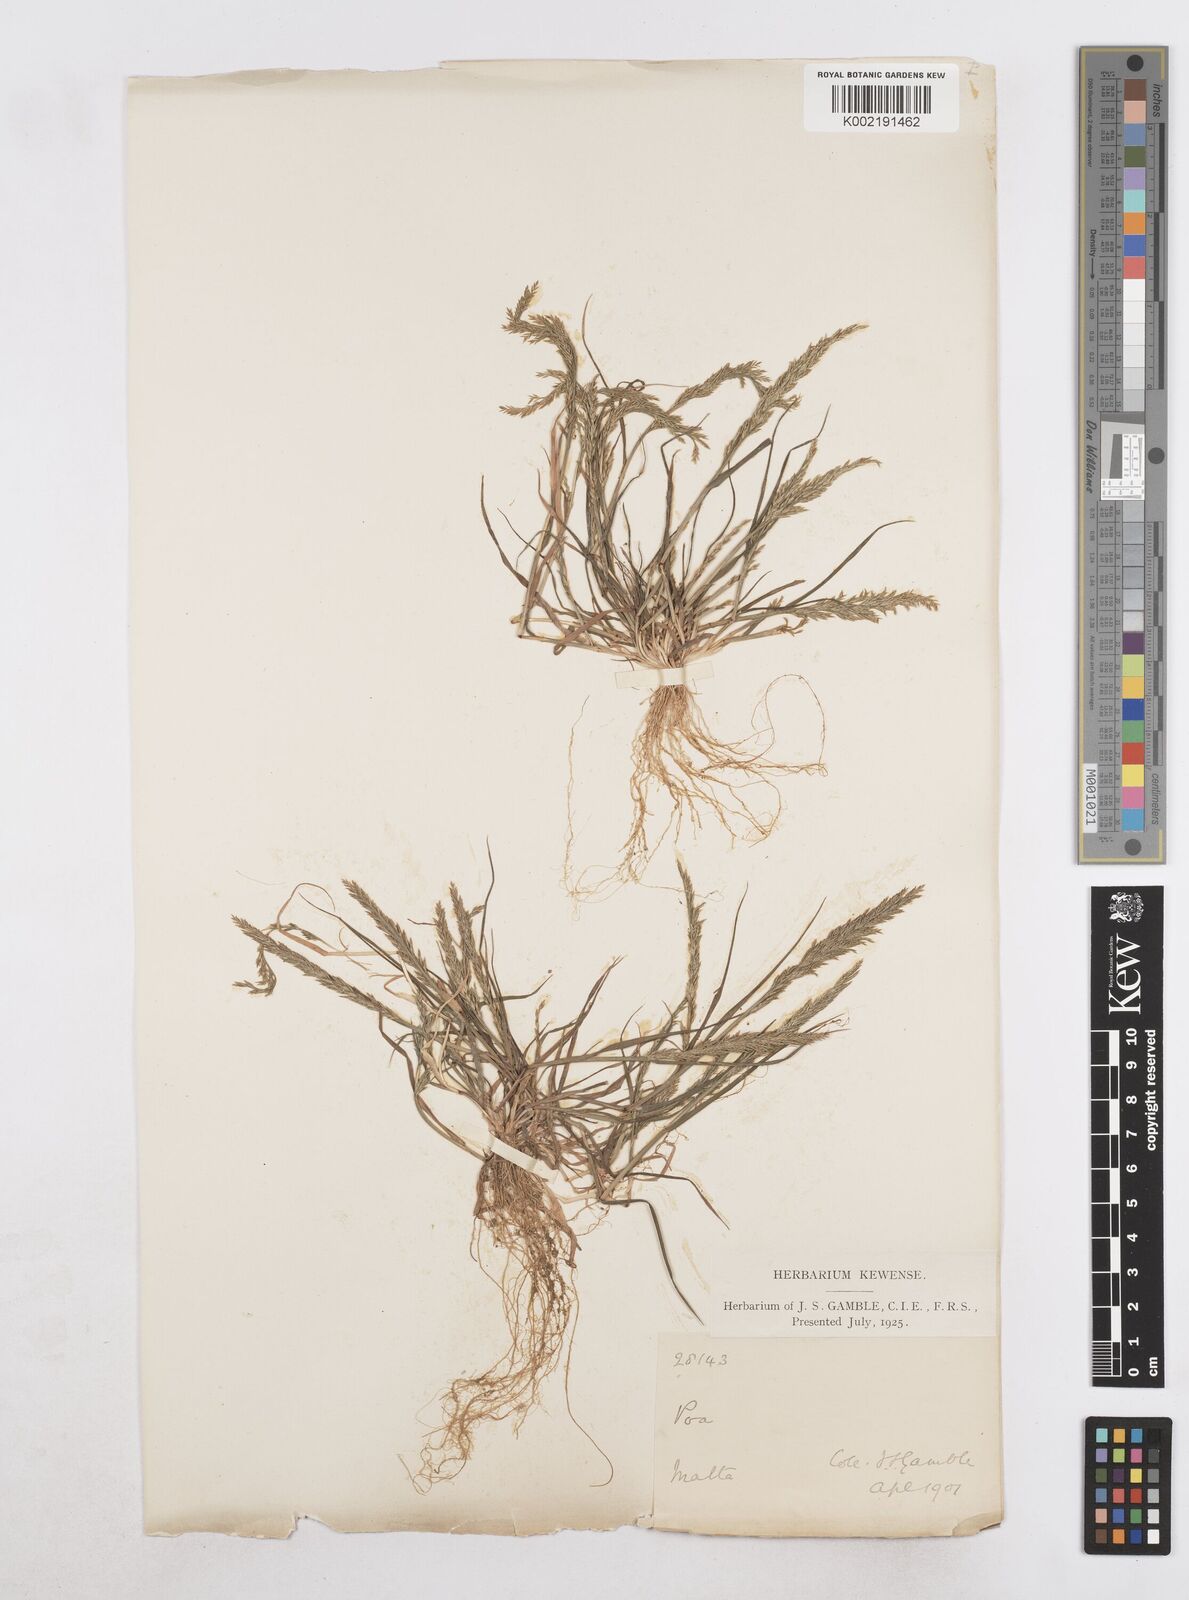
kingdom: Plantae
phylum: Tracheophyta
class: Liliopsida
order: Poales
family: Poaceae
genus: Catapodium
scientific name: Catapodium rigidum
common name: Fern-grass
